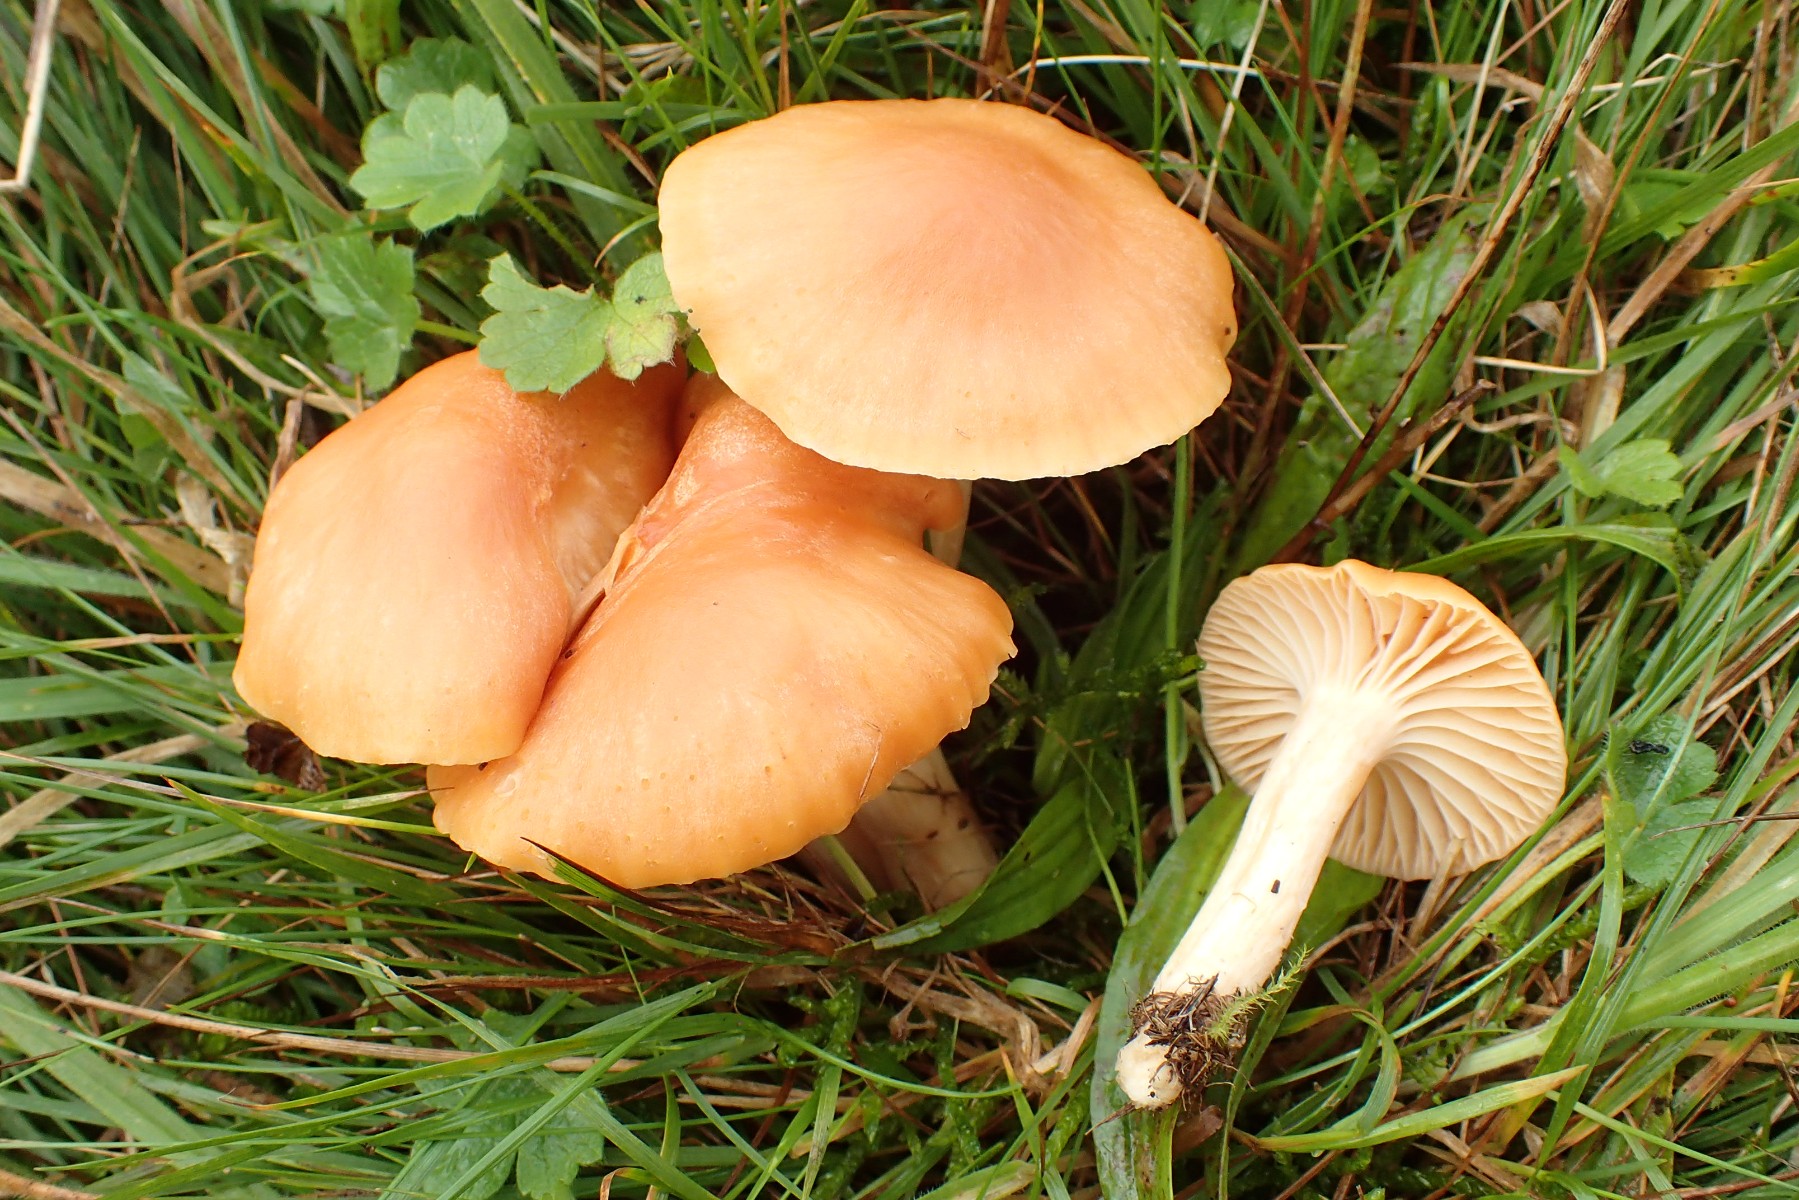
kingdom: Fungi
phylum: Basidiomycota
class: Agaricomycetes
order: Agaricales
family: Hygrophoraceae
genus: Cuphophyllus
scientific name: Cuphophyllus pratensis
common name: eng-vokshat
